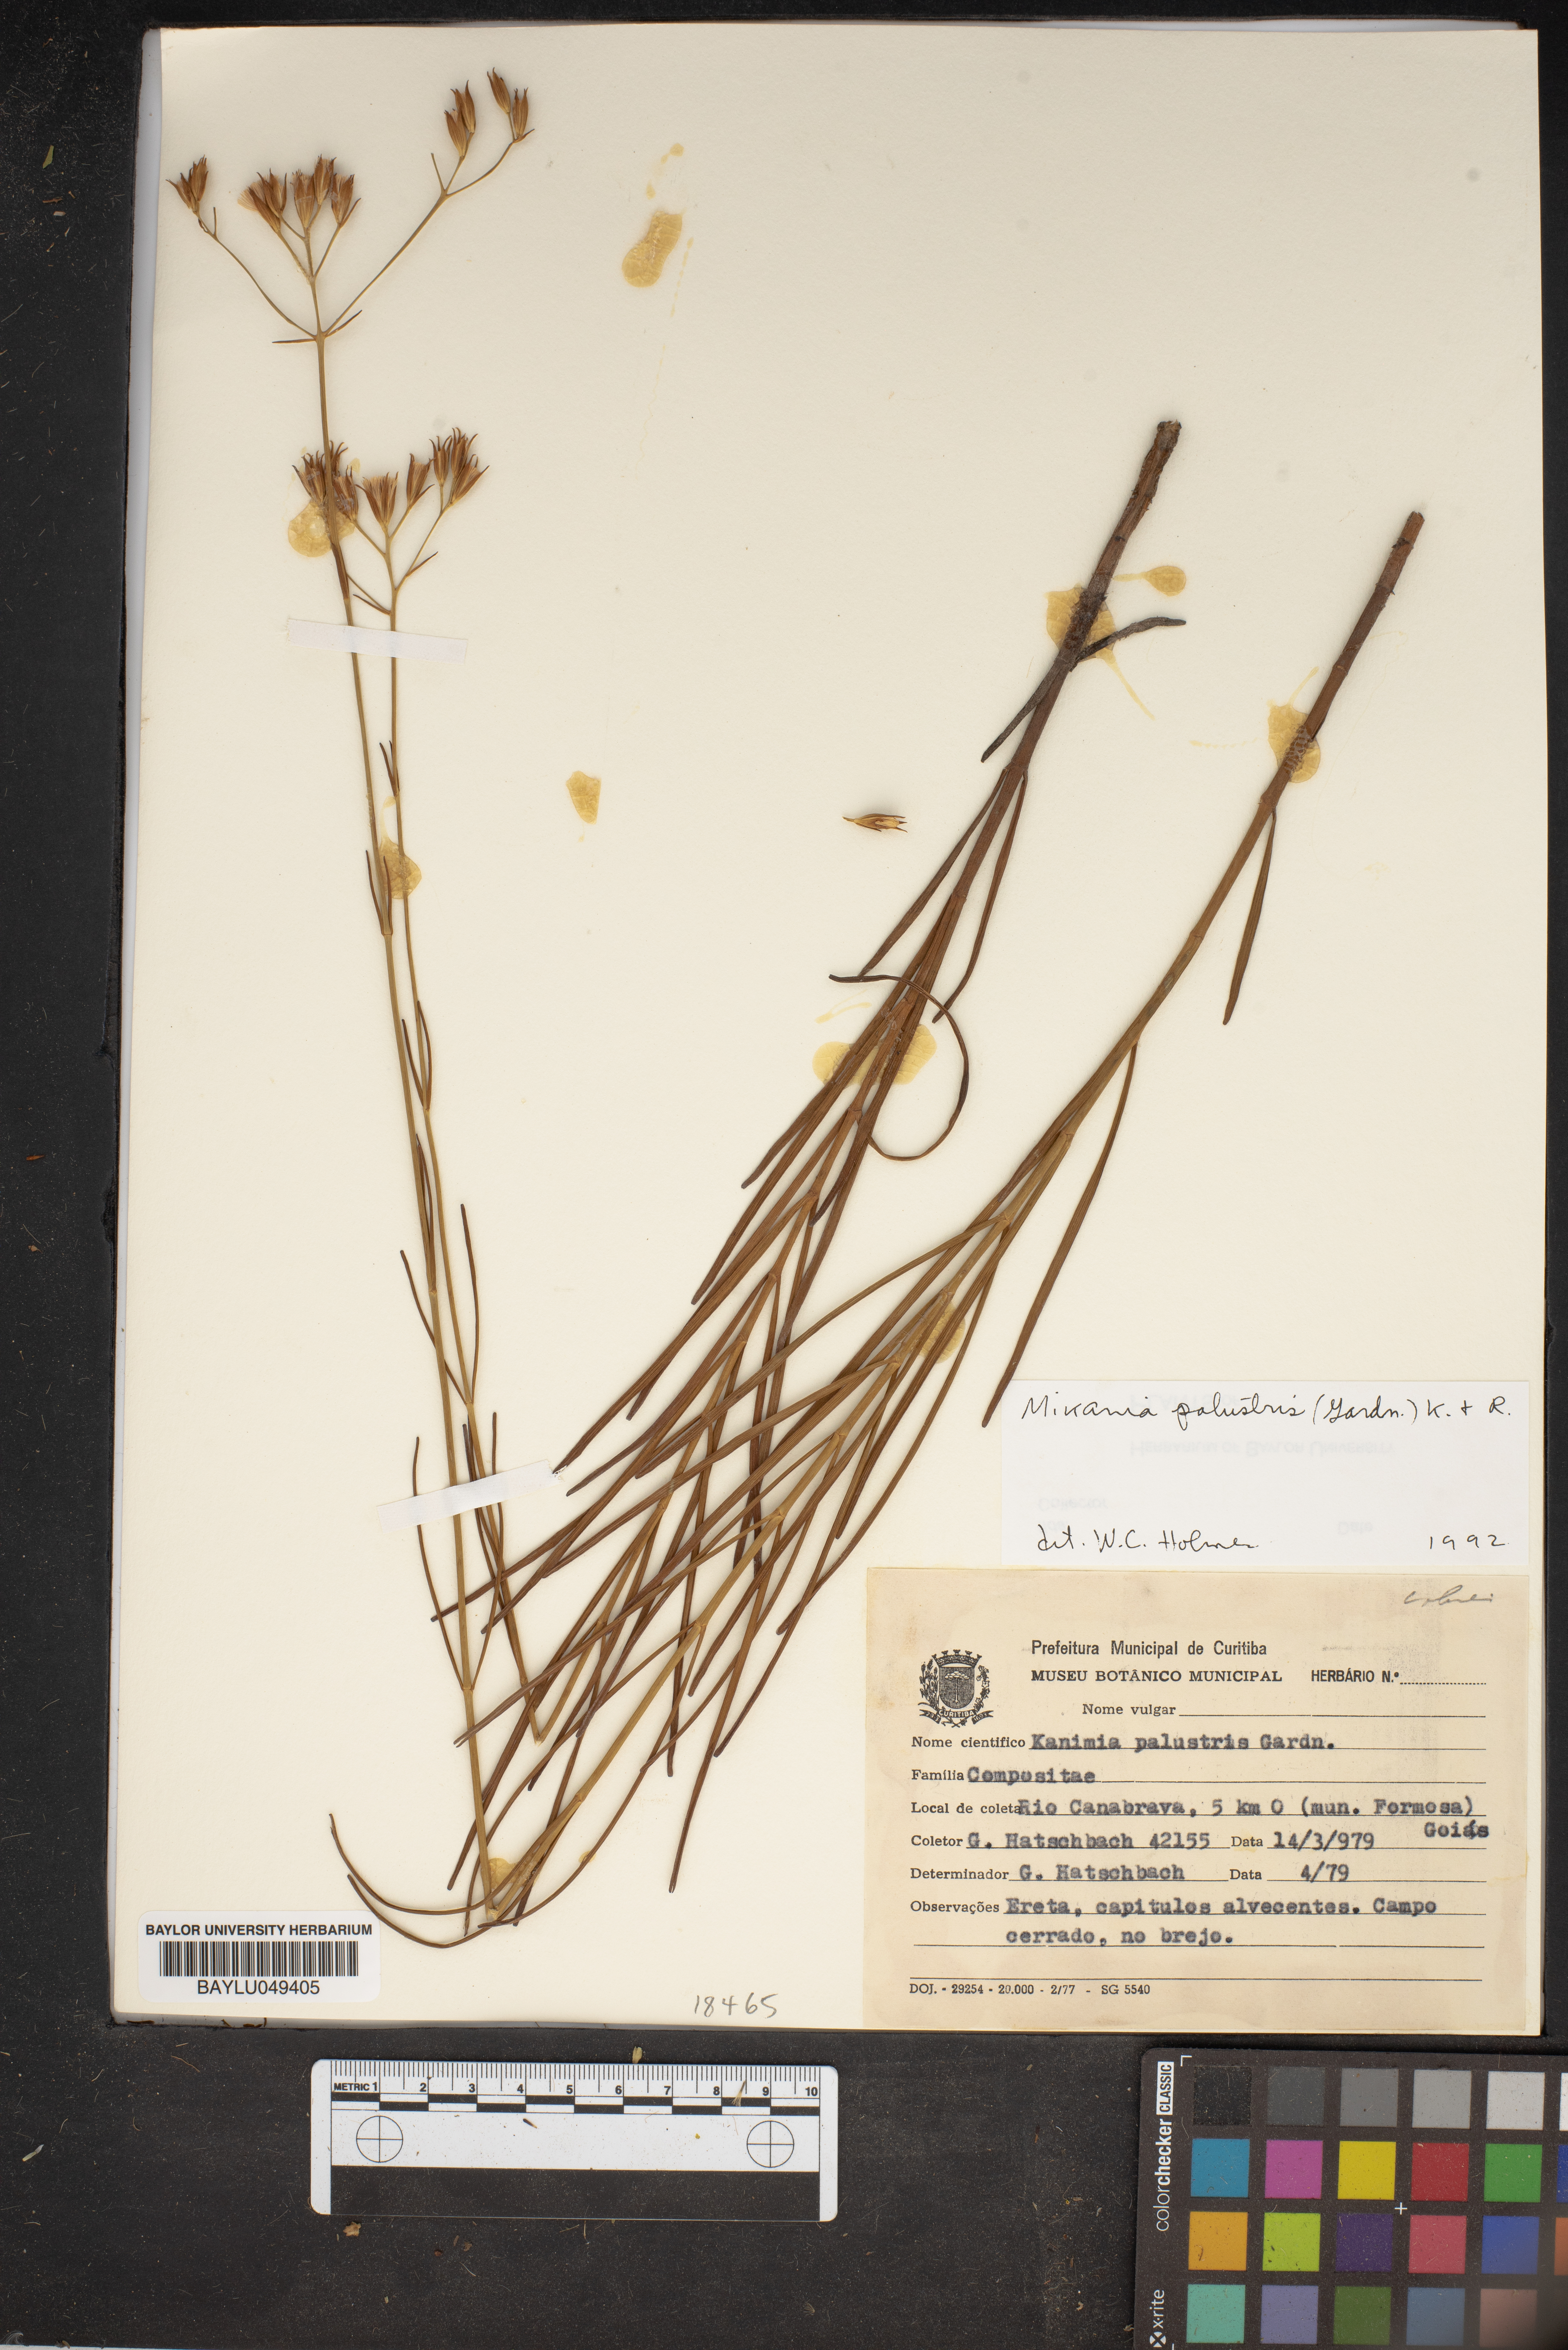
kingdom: Plantae
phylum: Tracheophyta
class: Magnoliopsida
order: Asterales
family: Asteraceae
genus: Mikania
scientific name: Mikania palustris
